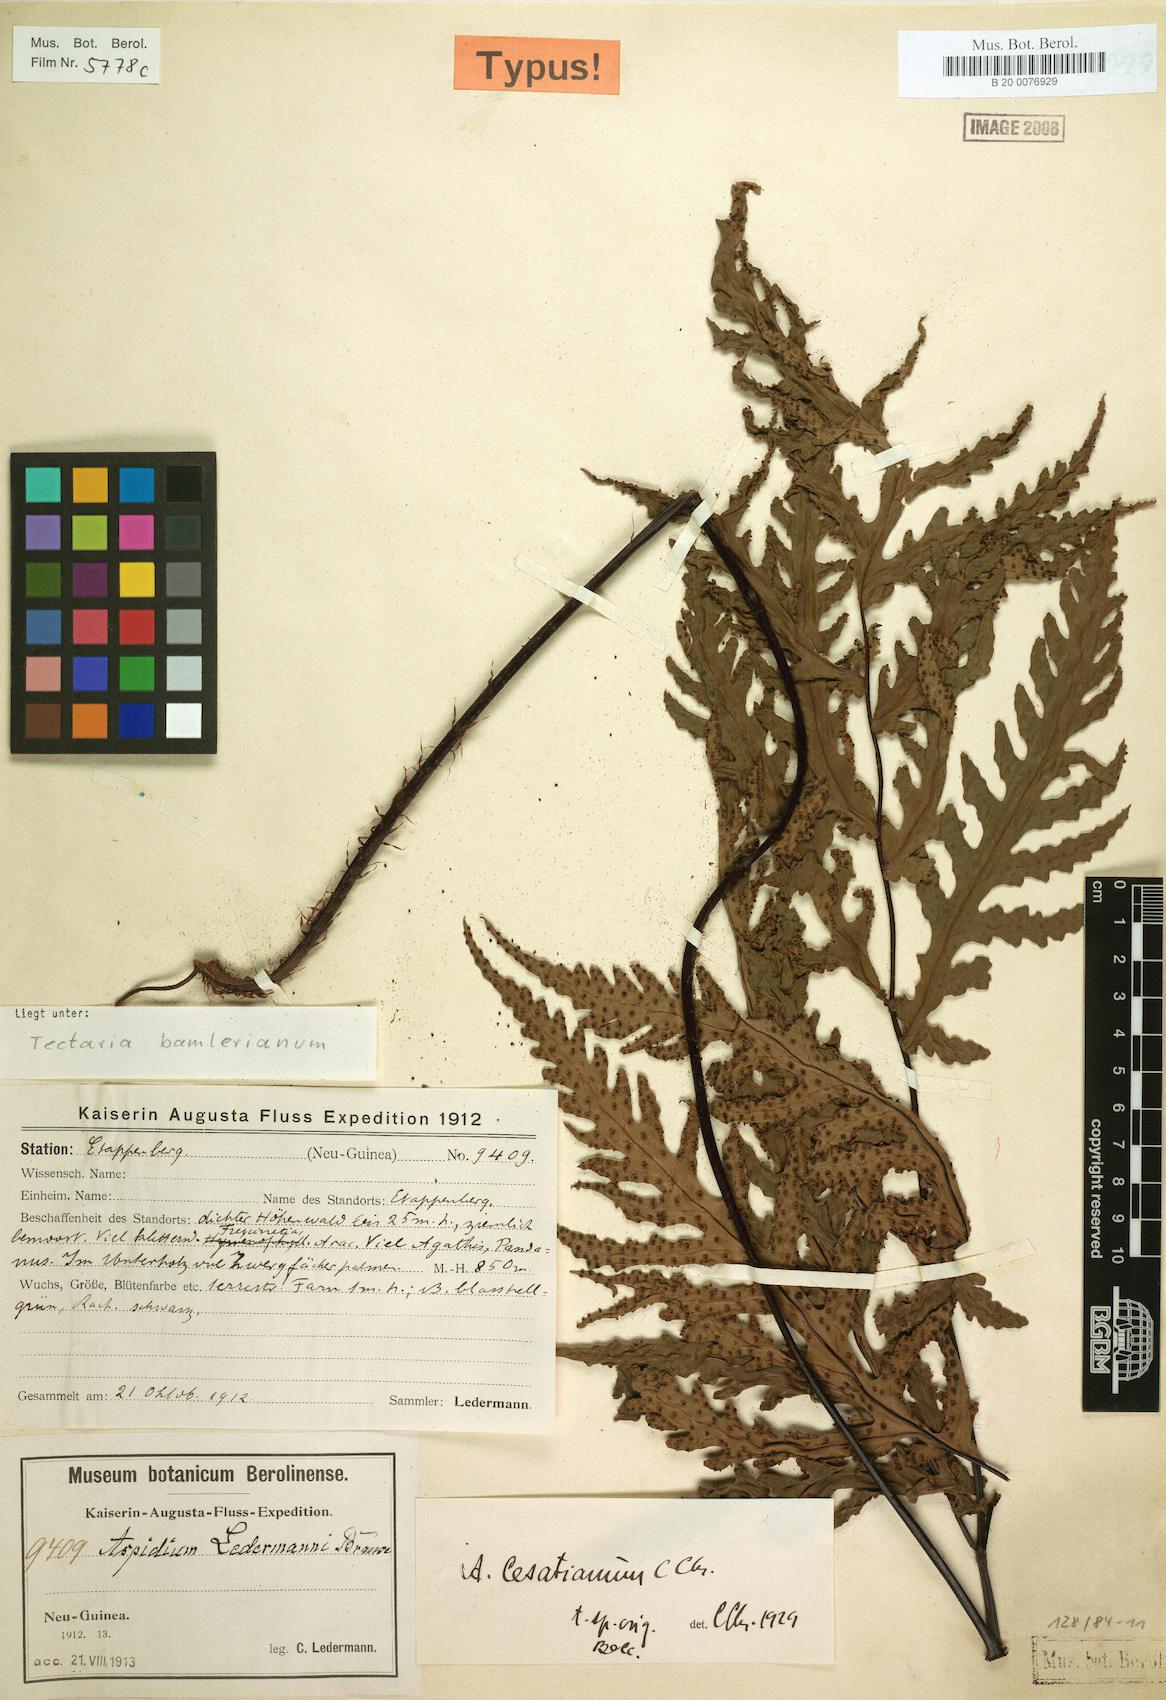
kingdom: Plantae
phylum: Tracheophyta
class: Polypodiopsida
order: Polypodiales
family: Tectariaceae
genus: Tectaria
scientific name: Tectaria bamleriana
